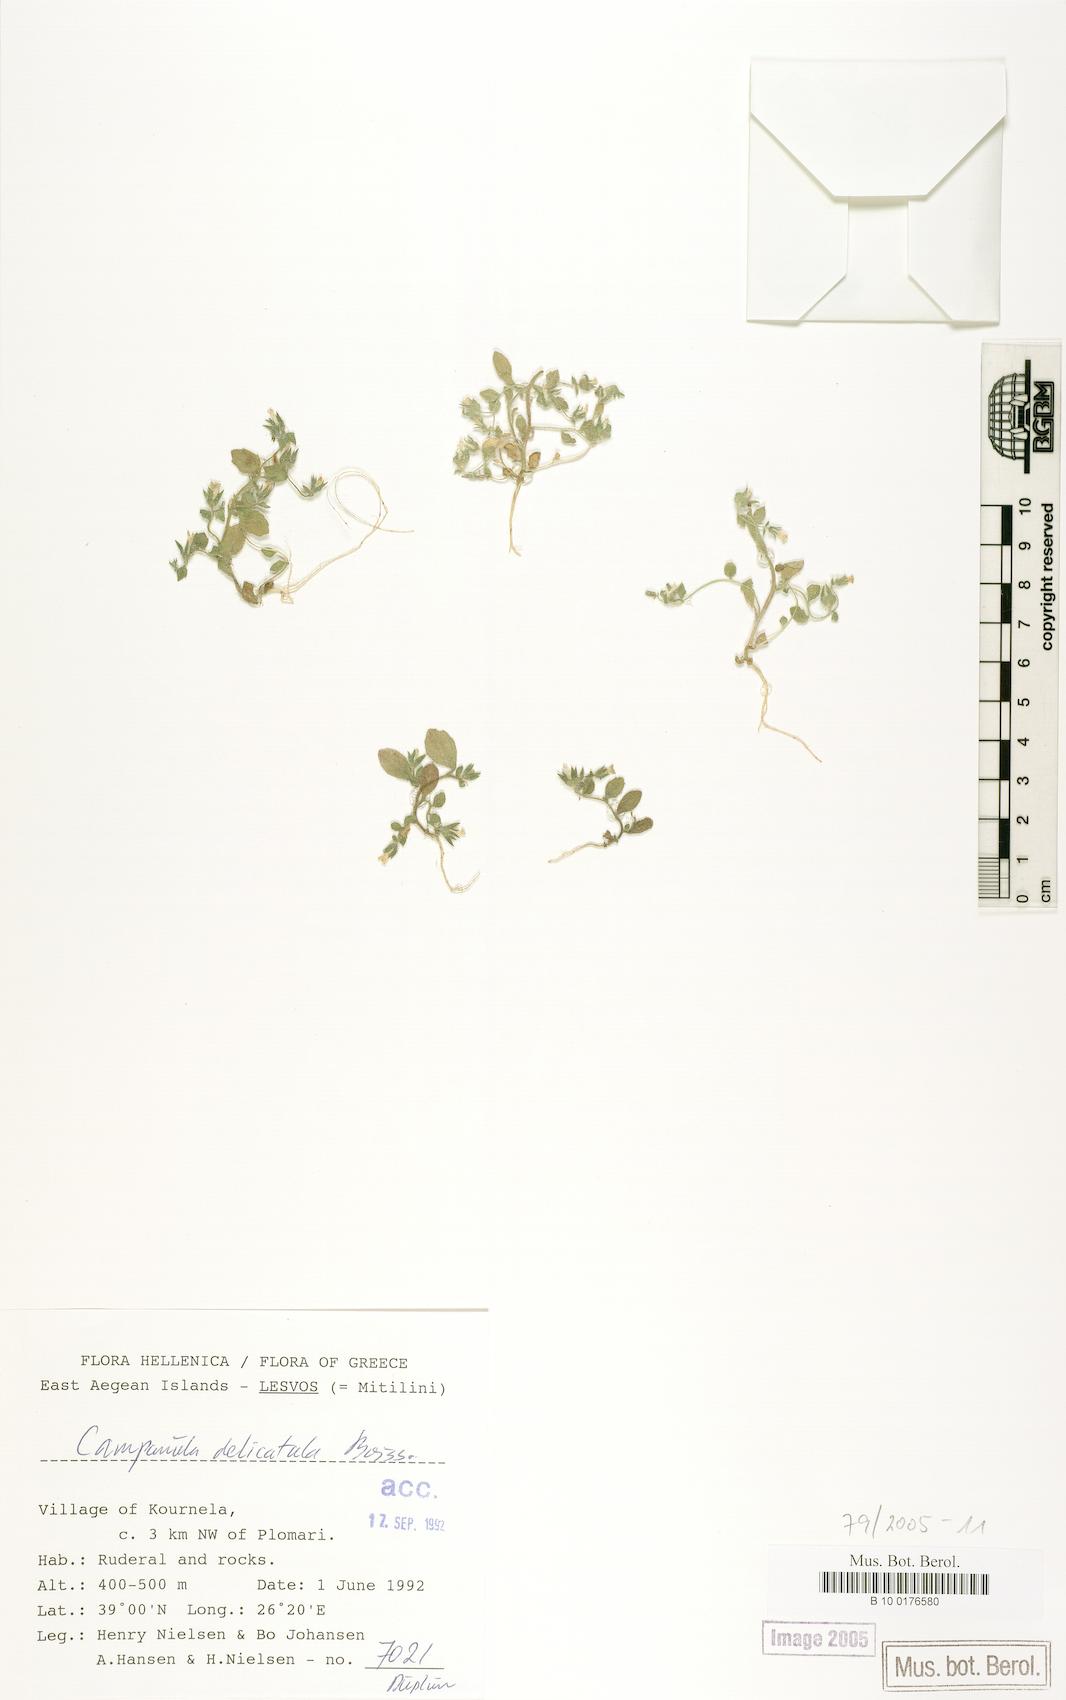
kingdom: Plantae
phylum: Tracheophyta
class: Magnoliopsida
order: Asterales
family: Campanulaceae
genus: Campanula
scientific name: Campanula delicatula
